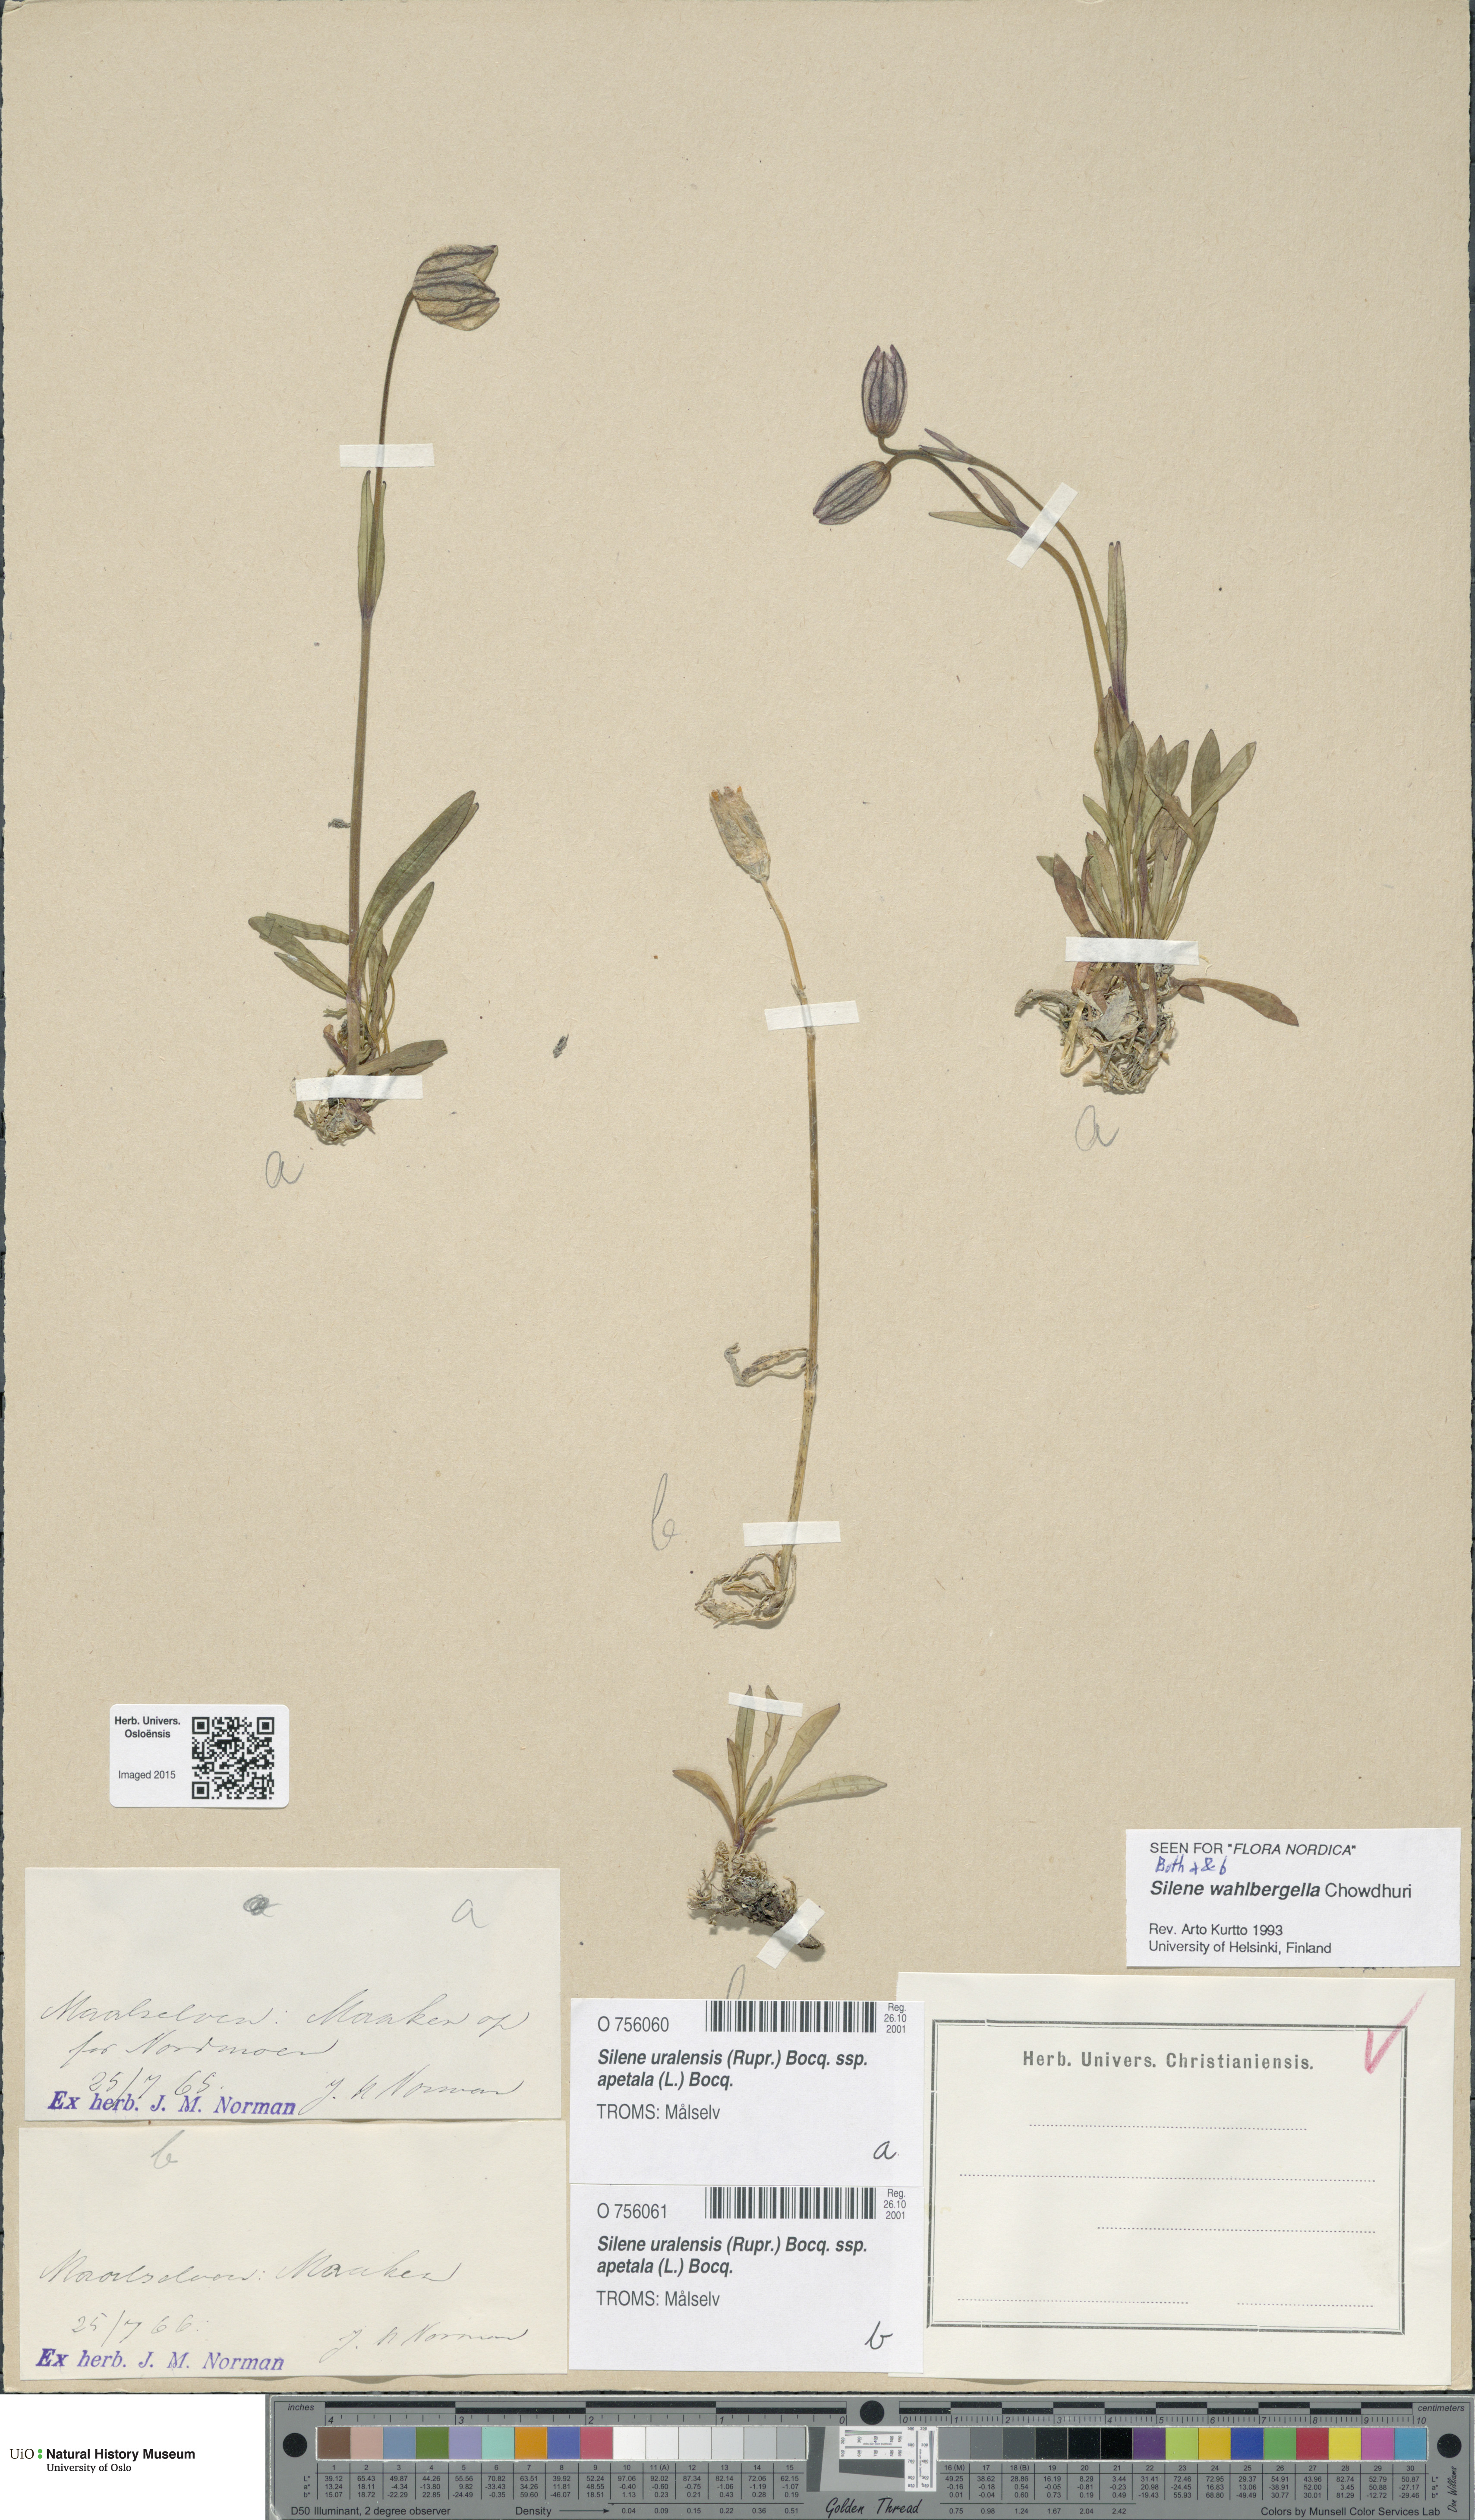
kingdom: Plantae
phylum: Tracheophyta
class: Magnoliopsida
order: Caryophyllales
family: Caryophyllaceae
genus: Silene
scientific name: Silene wahlbergella
